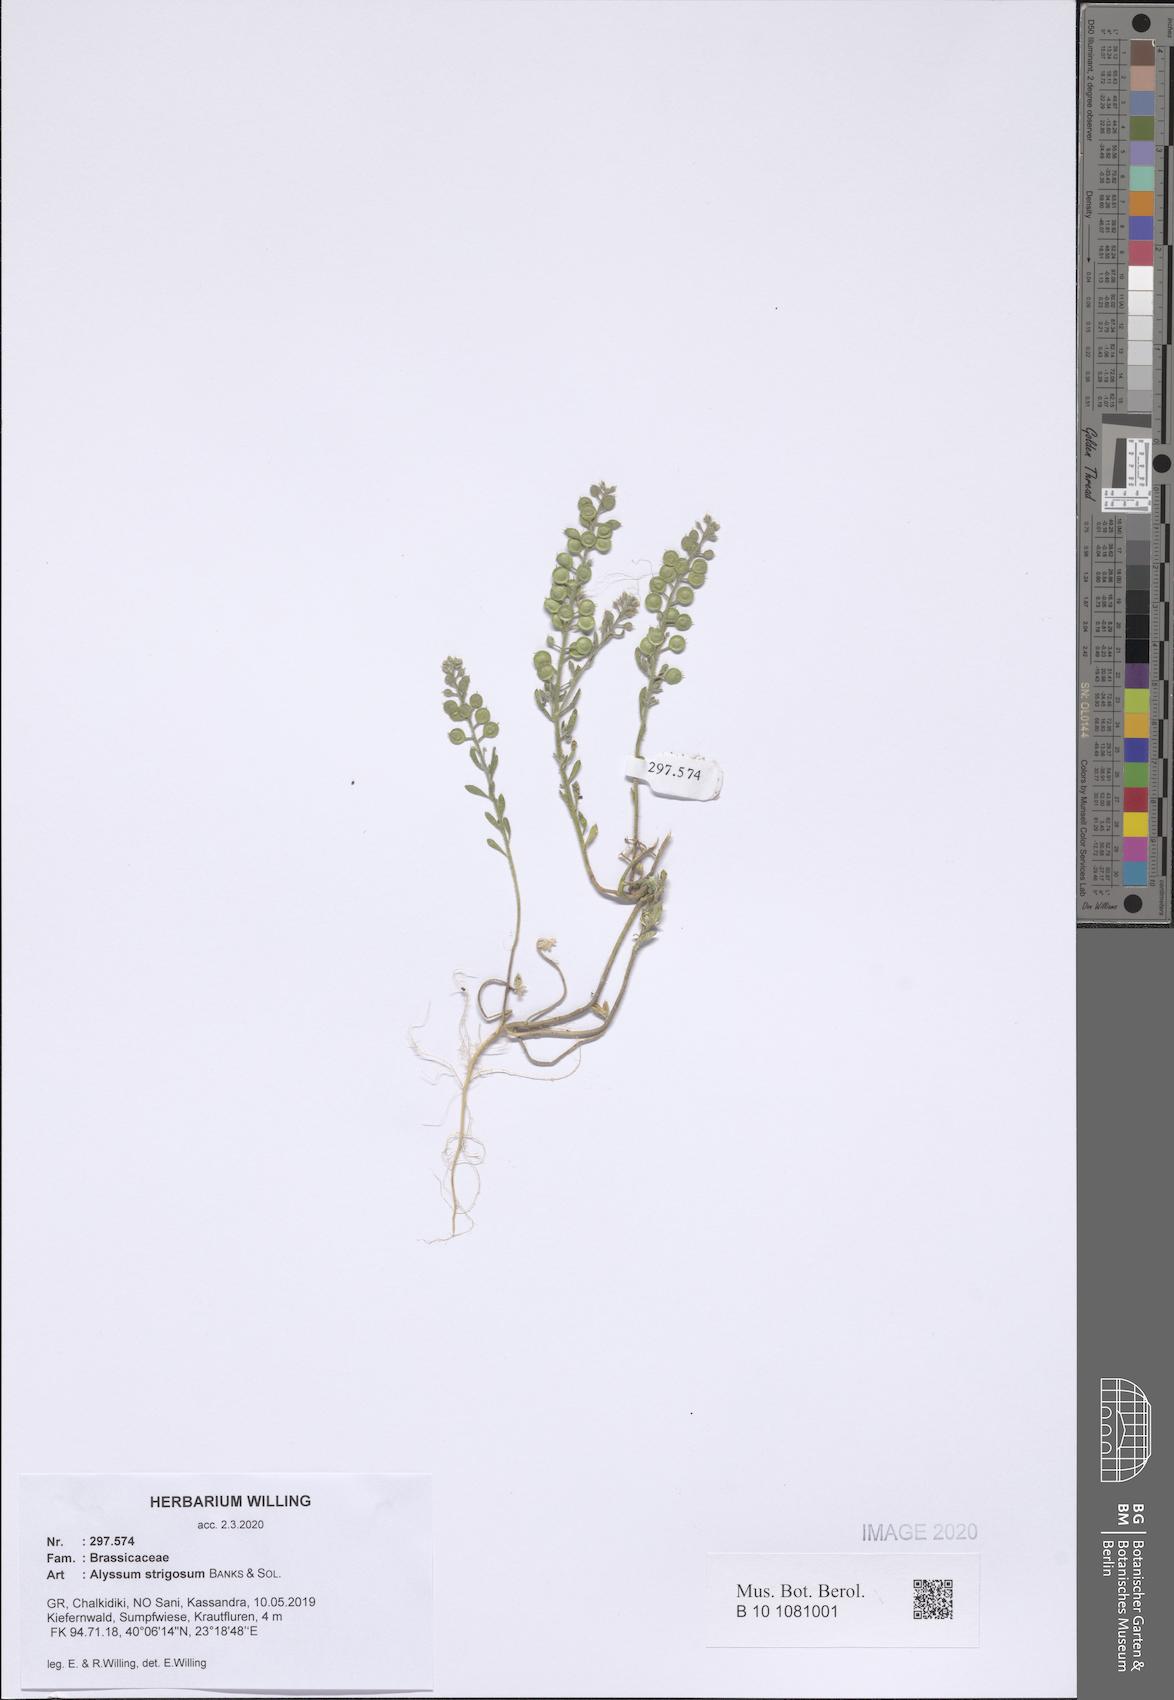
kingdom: Plantae
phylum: Tracheophyta
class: Magnoliopsida
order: Brassicales
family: Brassicaceae
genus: Alyssum
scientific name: Alyssum strigosum
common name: Alyssum
